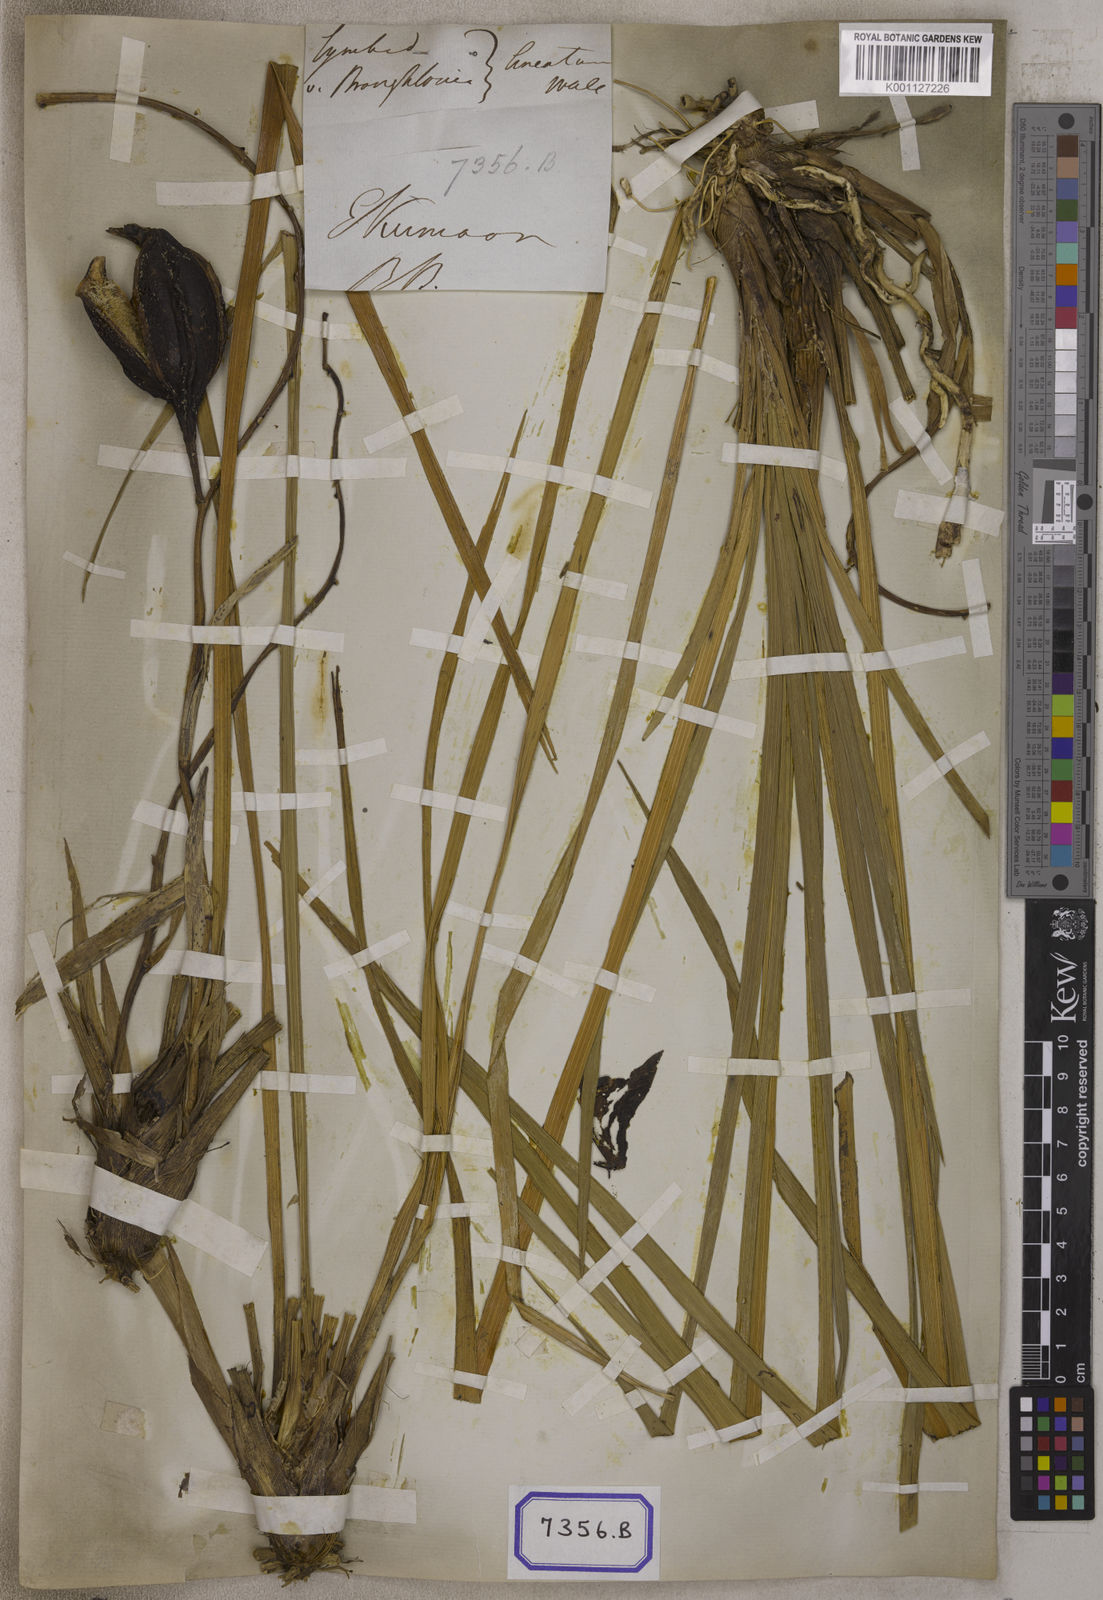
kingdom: Plantae
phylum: Tracheophyta
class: Liliopsida
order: Asparagales
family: Orchidaceae
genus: Cymbidium
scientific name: Cymbidium elegans
